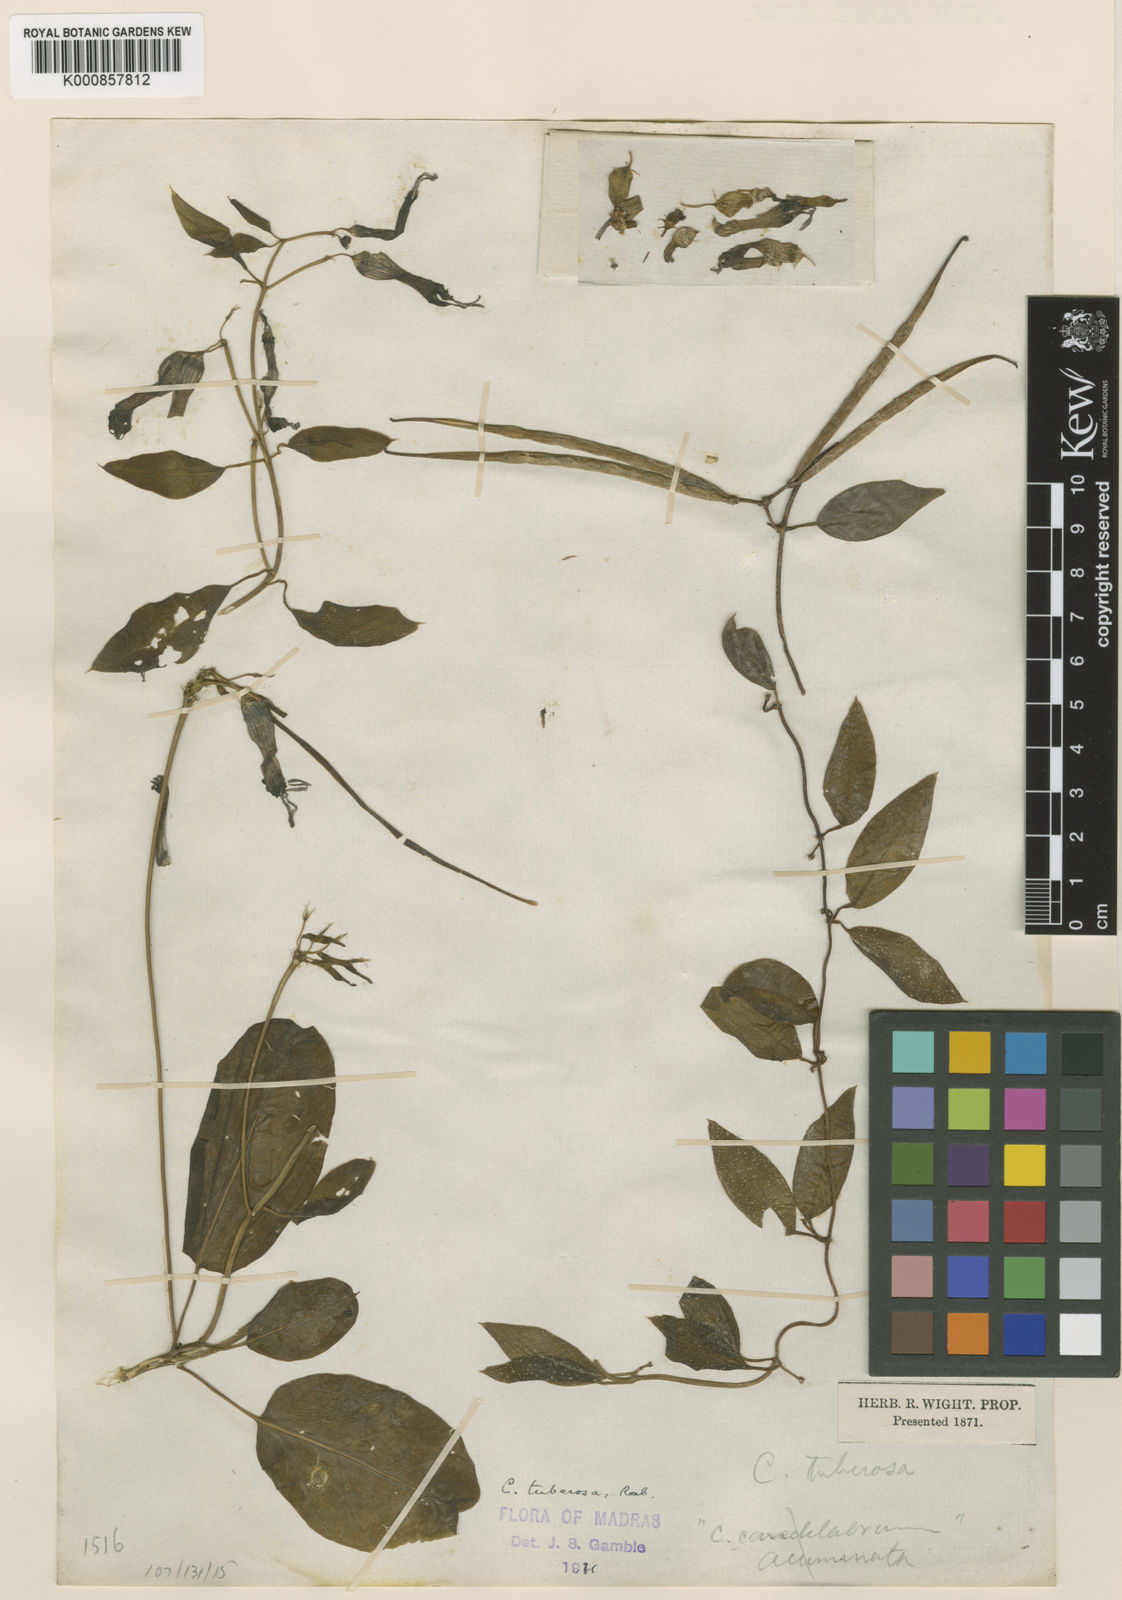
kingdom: Plantae
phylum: Tracheophyta
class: Magnoliopsida
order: Gentianales
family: Apocynaceae
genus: Ceropegia
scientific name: Ceropegia candelabrum
